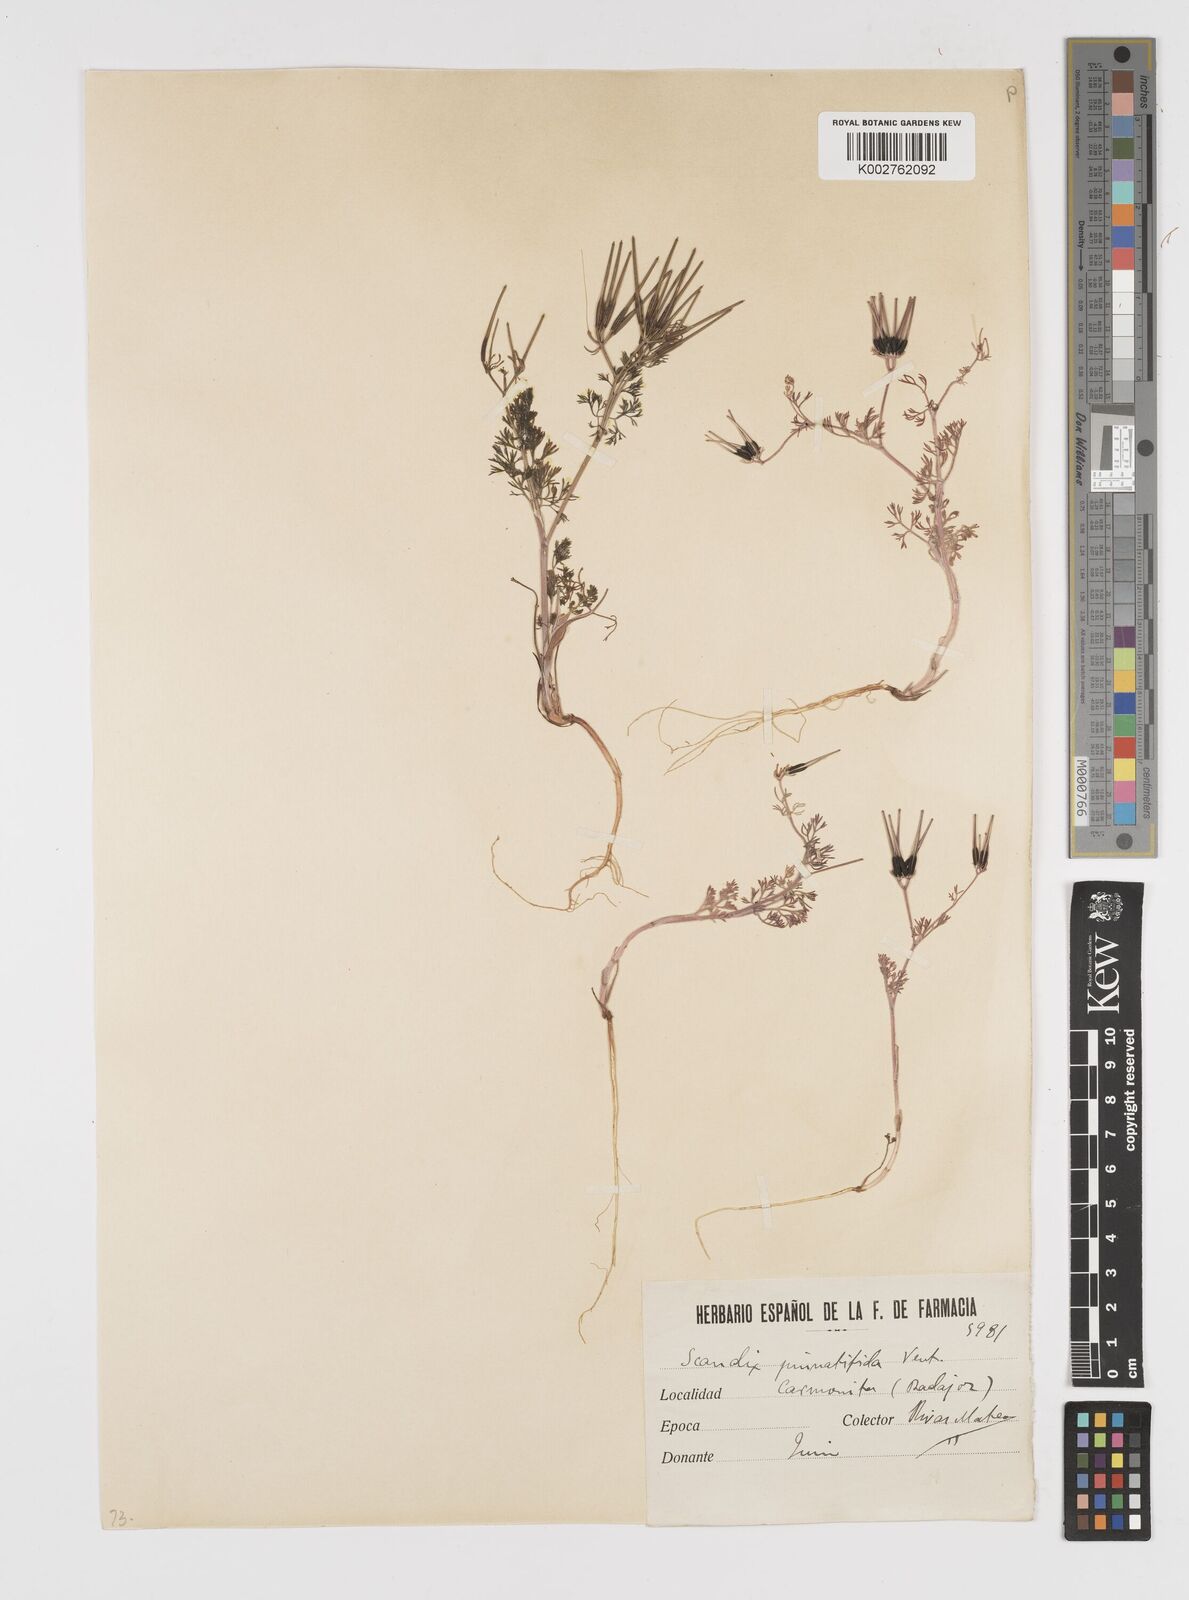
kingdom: Plantae
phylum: Tracheophyta
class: Magnoliopsida
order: Apiales
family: Apiaceae
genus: Scandix
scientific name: Scandix stellata
